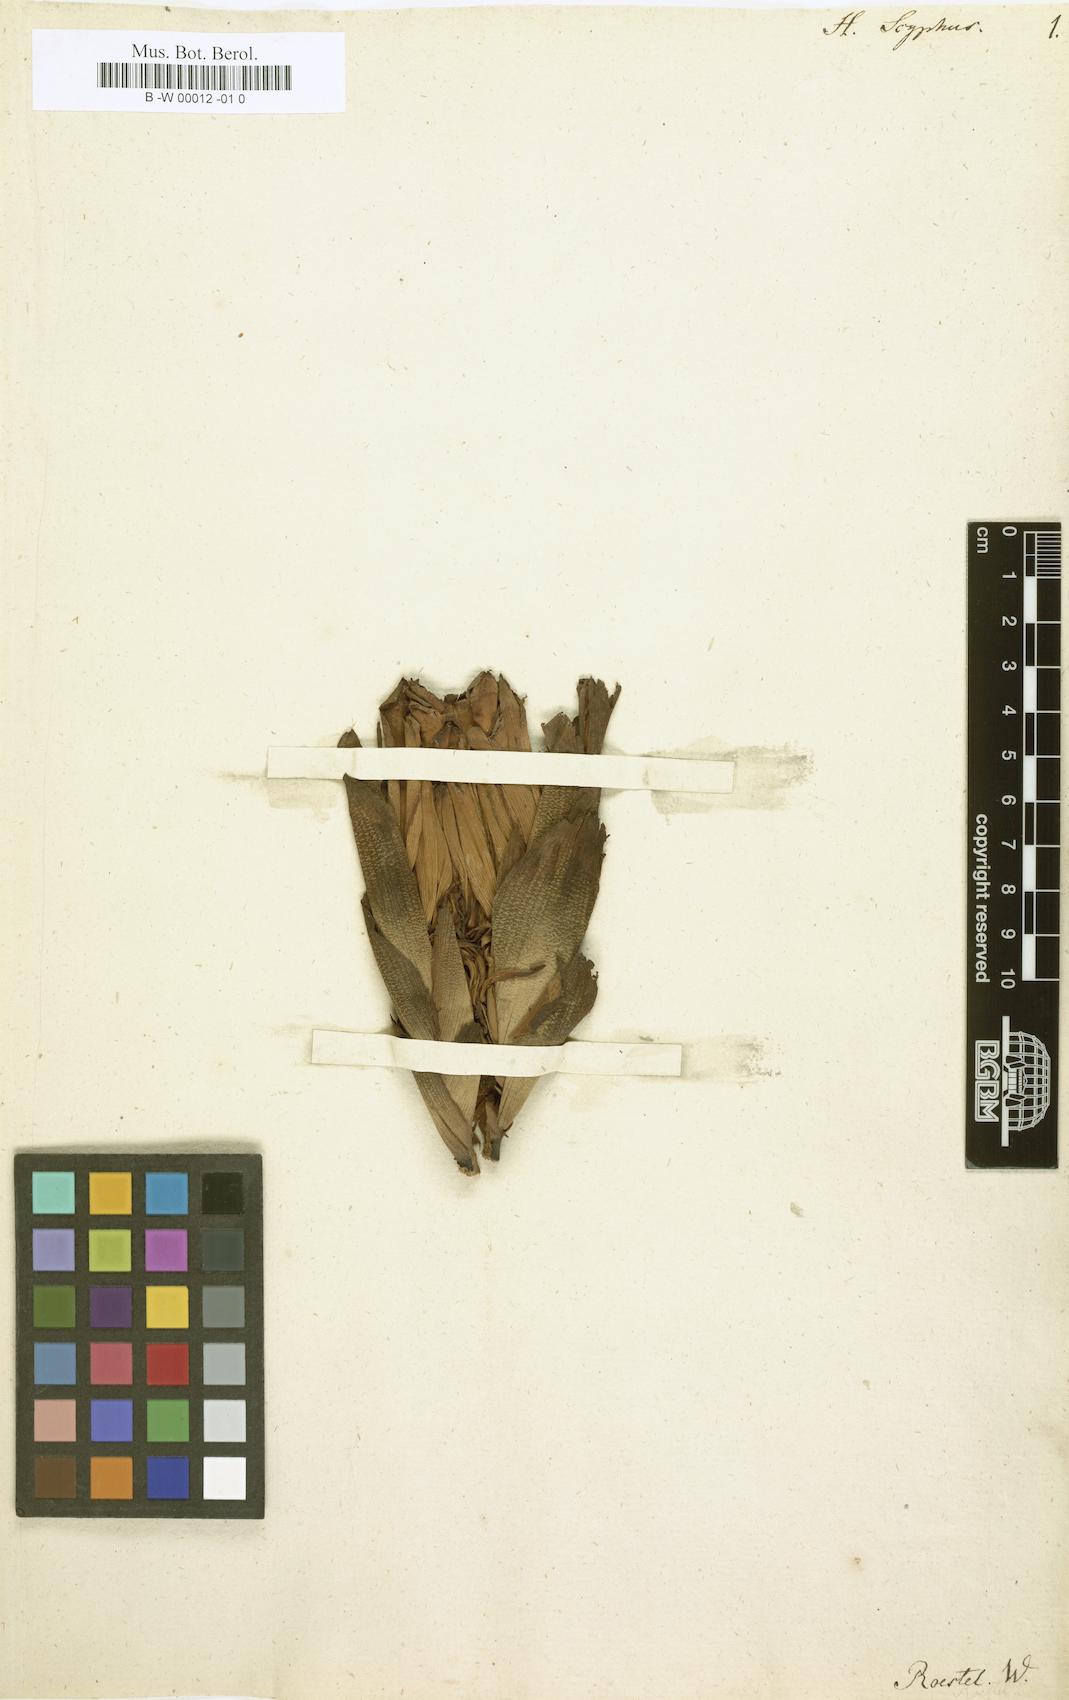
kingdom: Plantae
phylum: Tracheophyta
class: Liliopsida
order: Zingiberales
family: Zingiberaceae
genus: Hornstedtia
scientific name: Hornstedtia scyphifera
